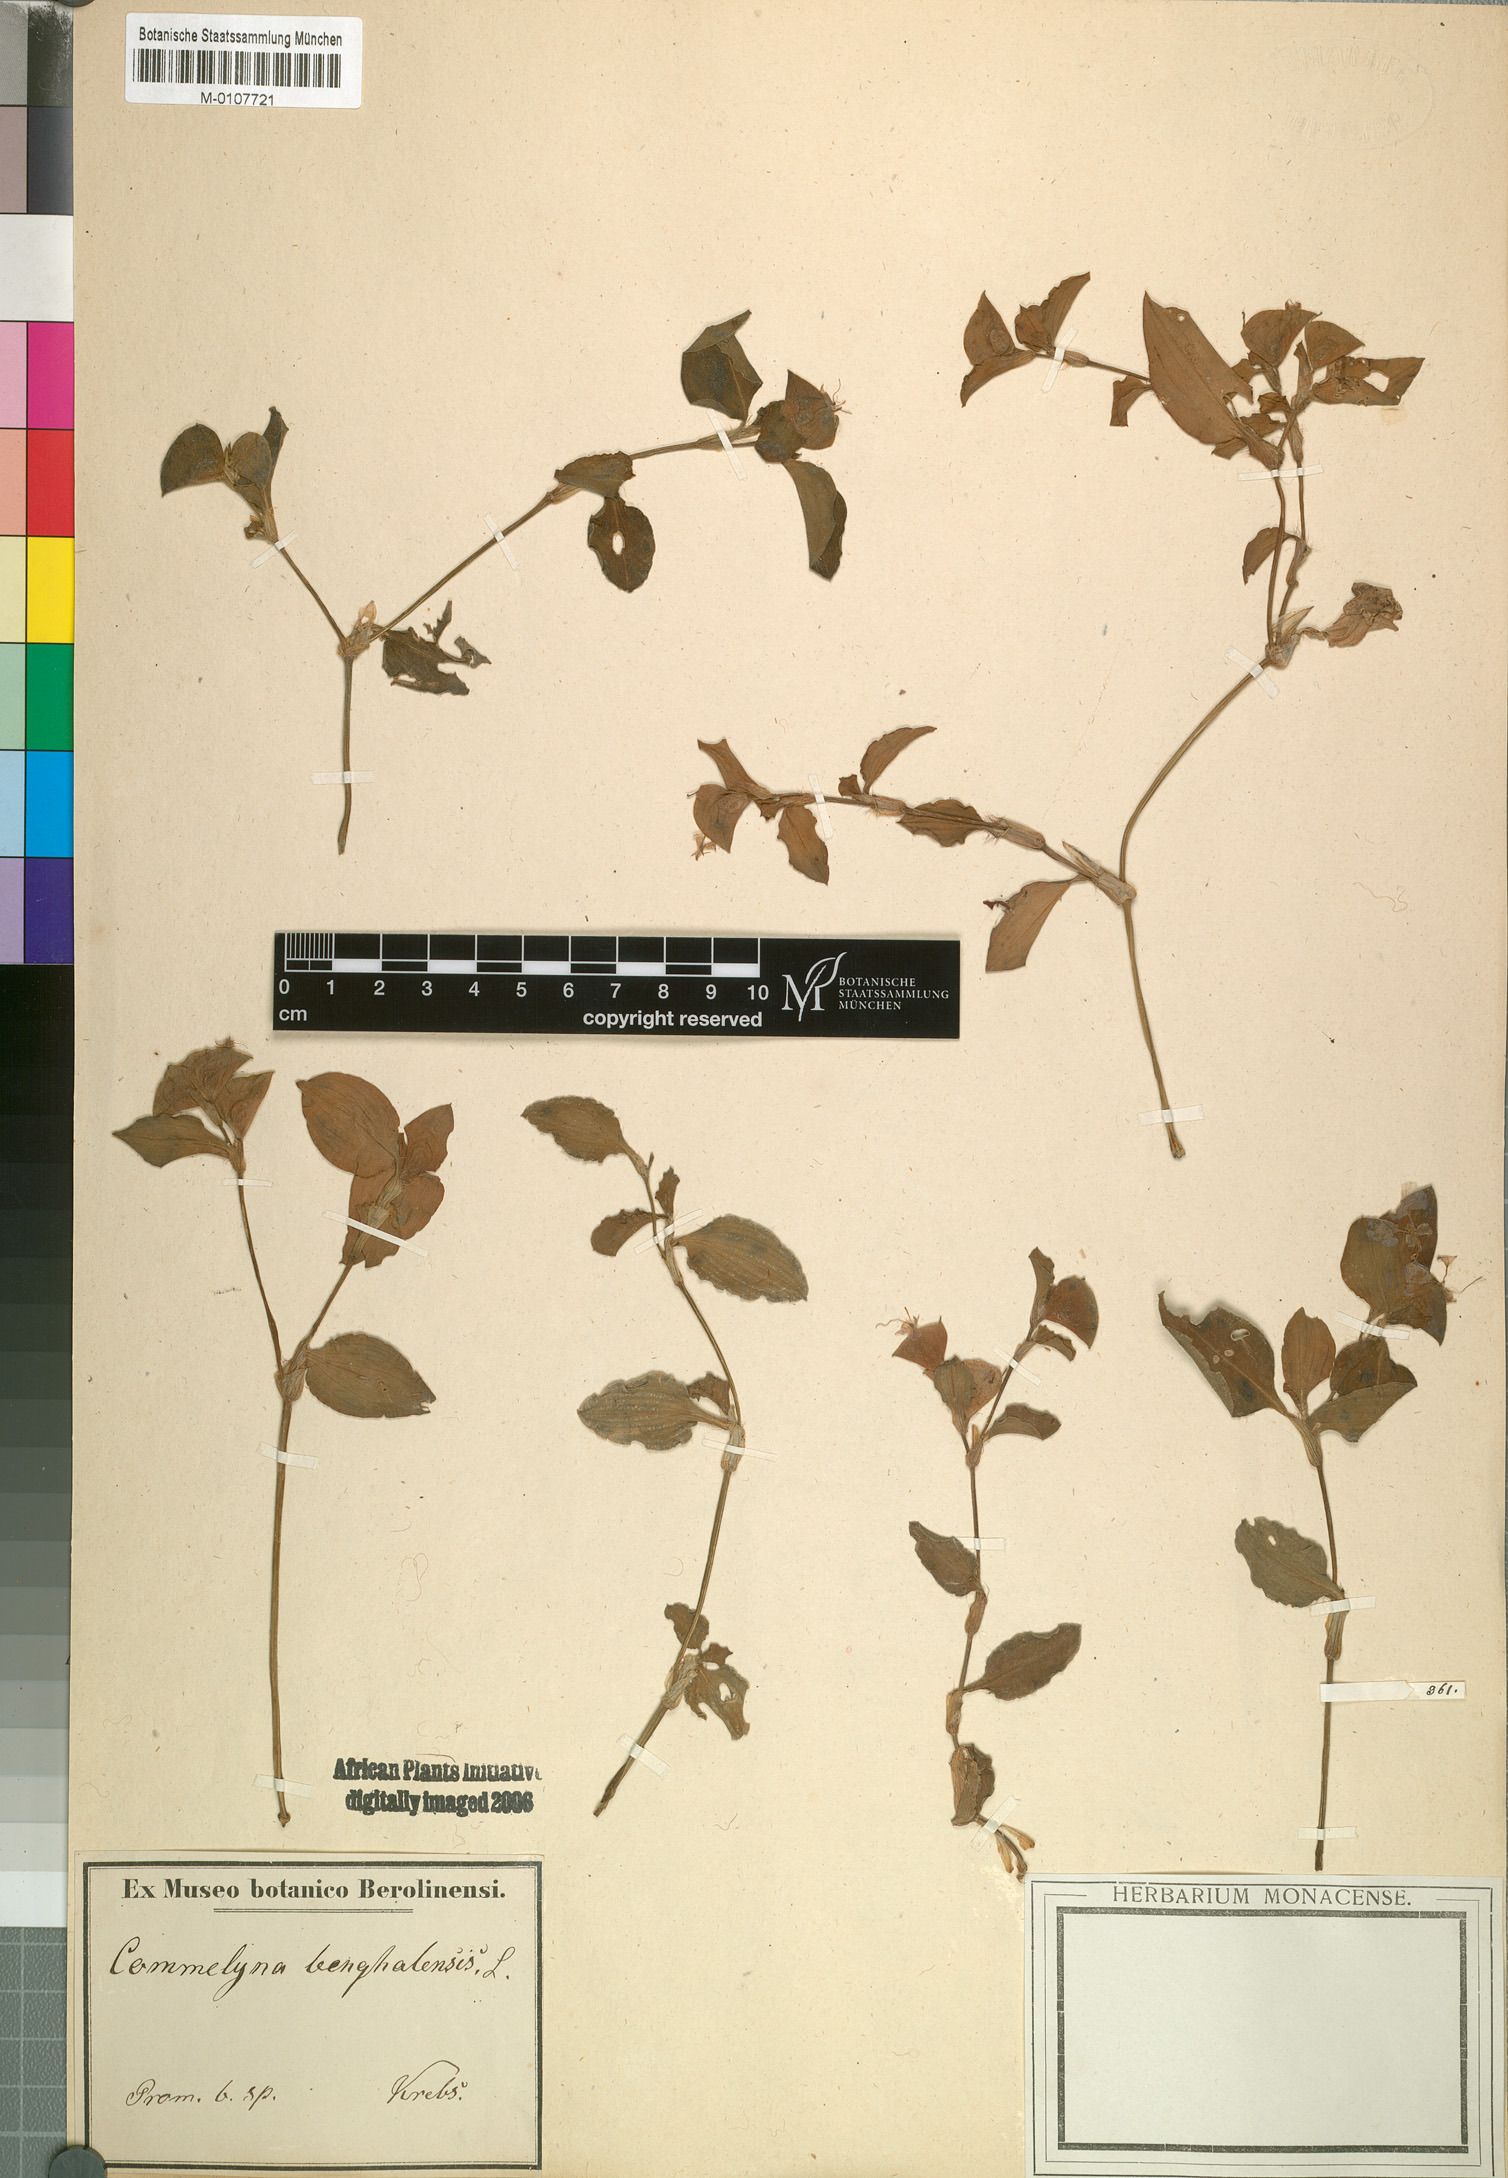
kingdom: Plantae
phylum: Tracheophyta
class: Liliopsida
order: Commelinales
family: Commelinaceae
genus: Commelina
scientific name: Commelina benghalensis
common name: Jio
